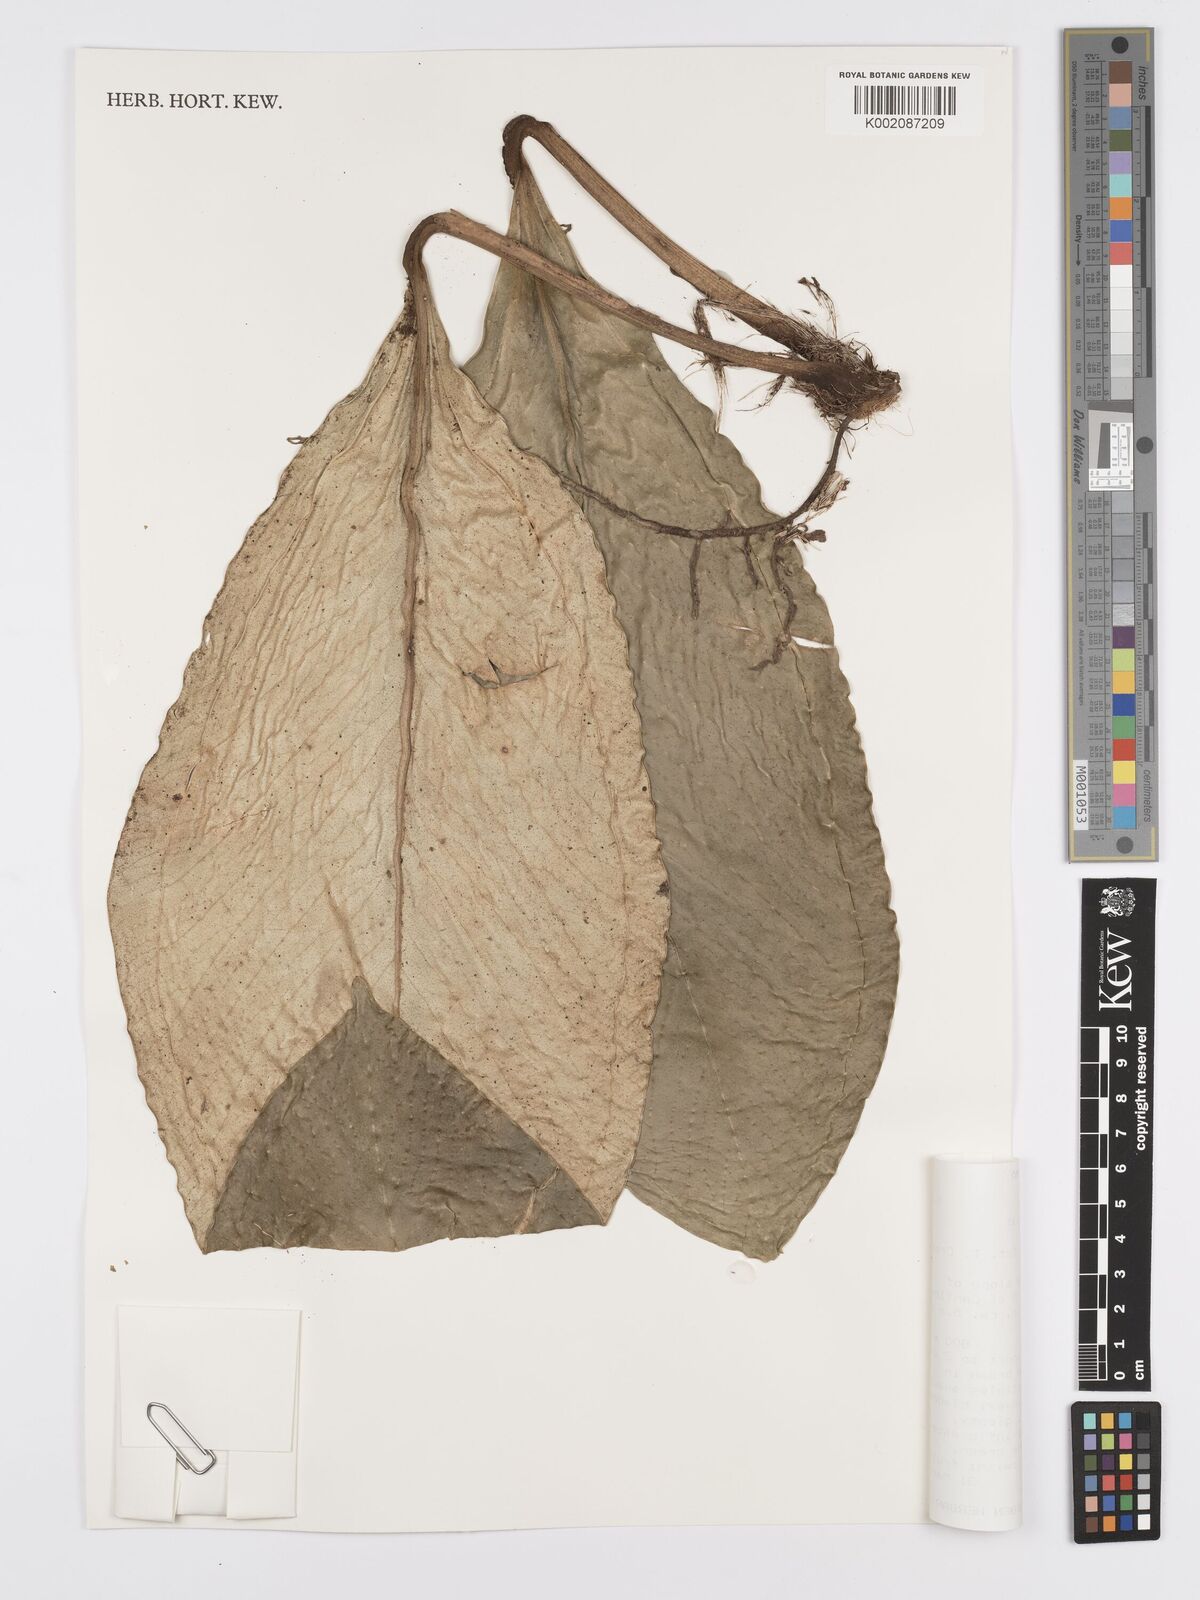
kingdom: Plantae
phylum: Tracheophyta
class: Liliopsida
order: Alismatales
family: Araceae
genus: Anthurium
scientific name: Anthurium vallense
